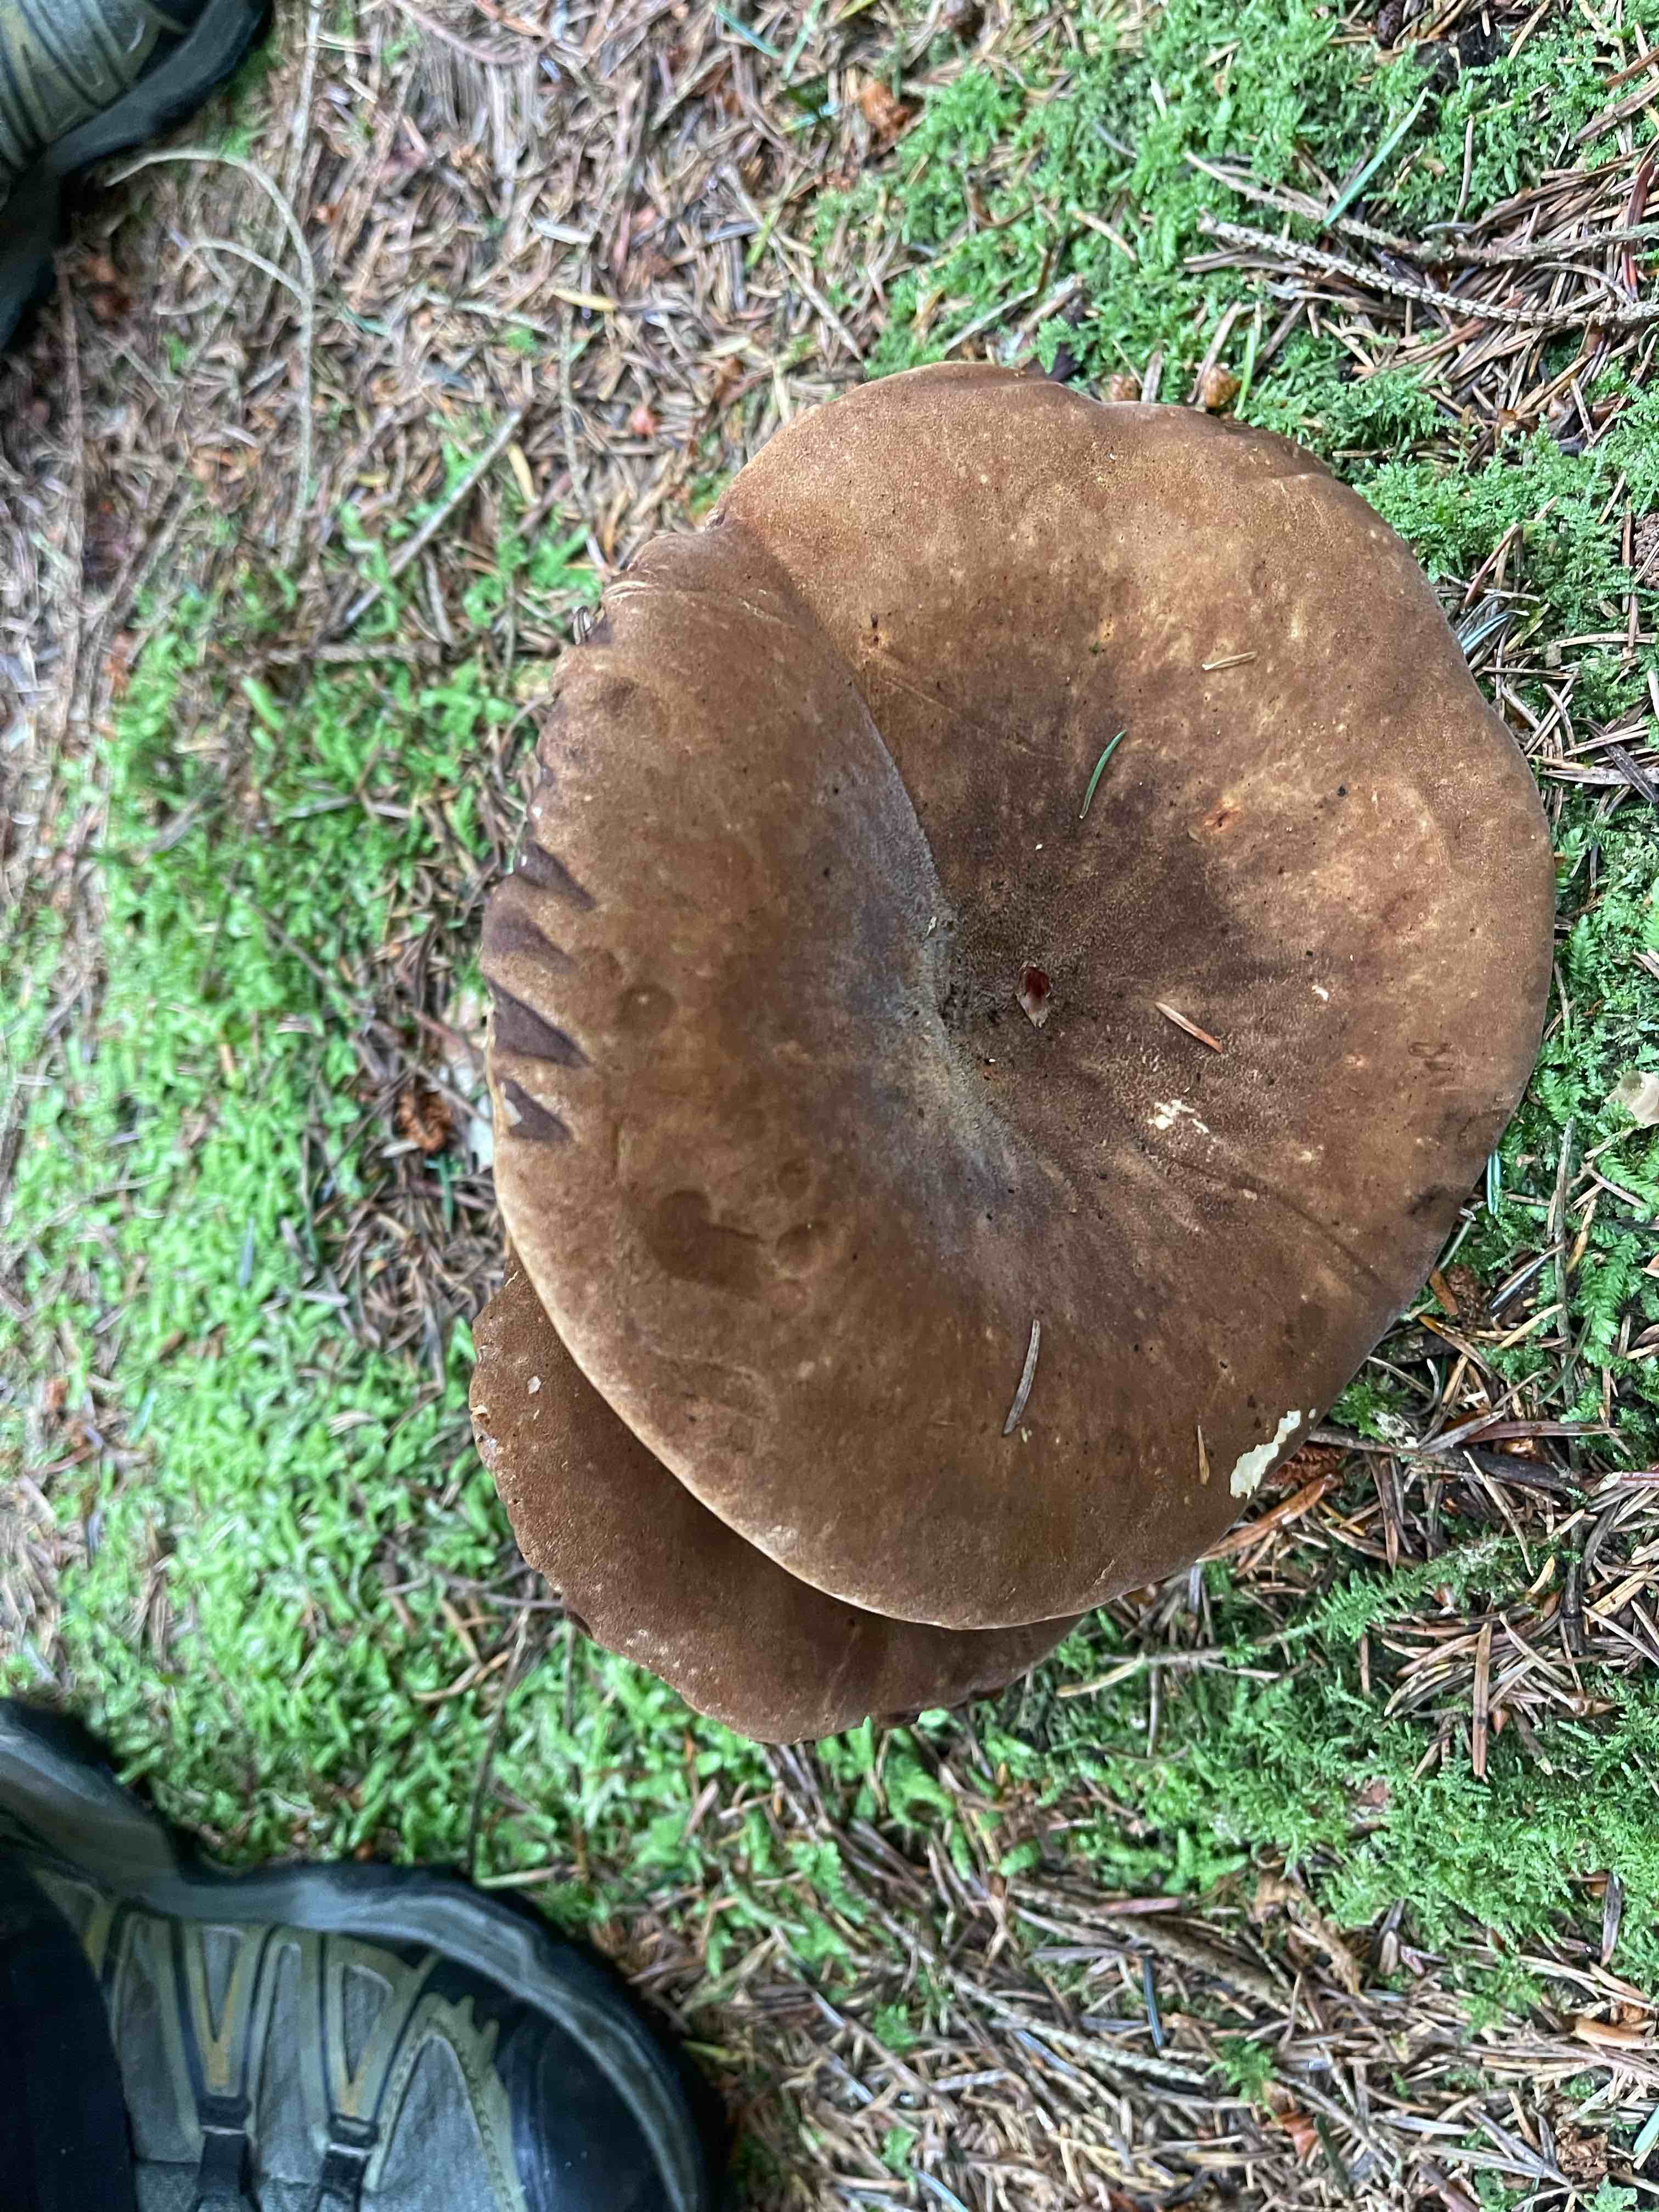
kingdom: Fungi
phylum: Basidiomycota
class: Agaricomycetes
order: Boletales
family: Tapinellaceae
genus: Tapinella
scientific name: Tapinella atrotomentosa
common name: sortfiltet viftesvamp
